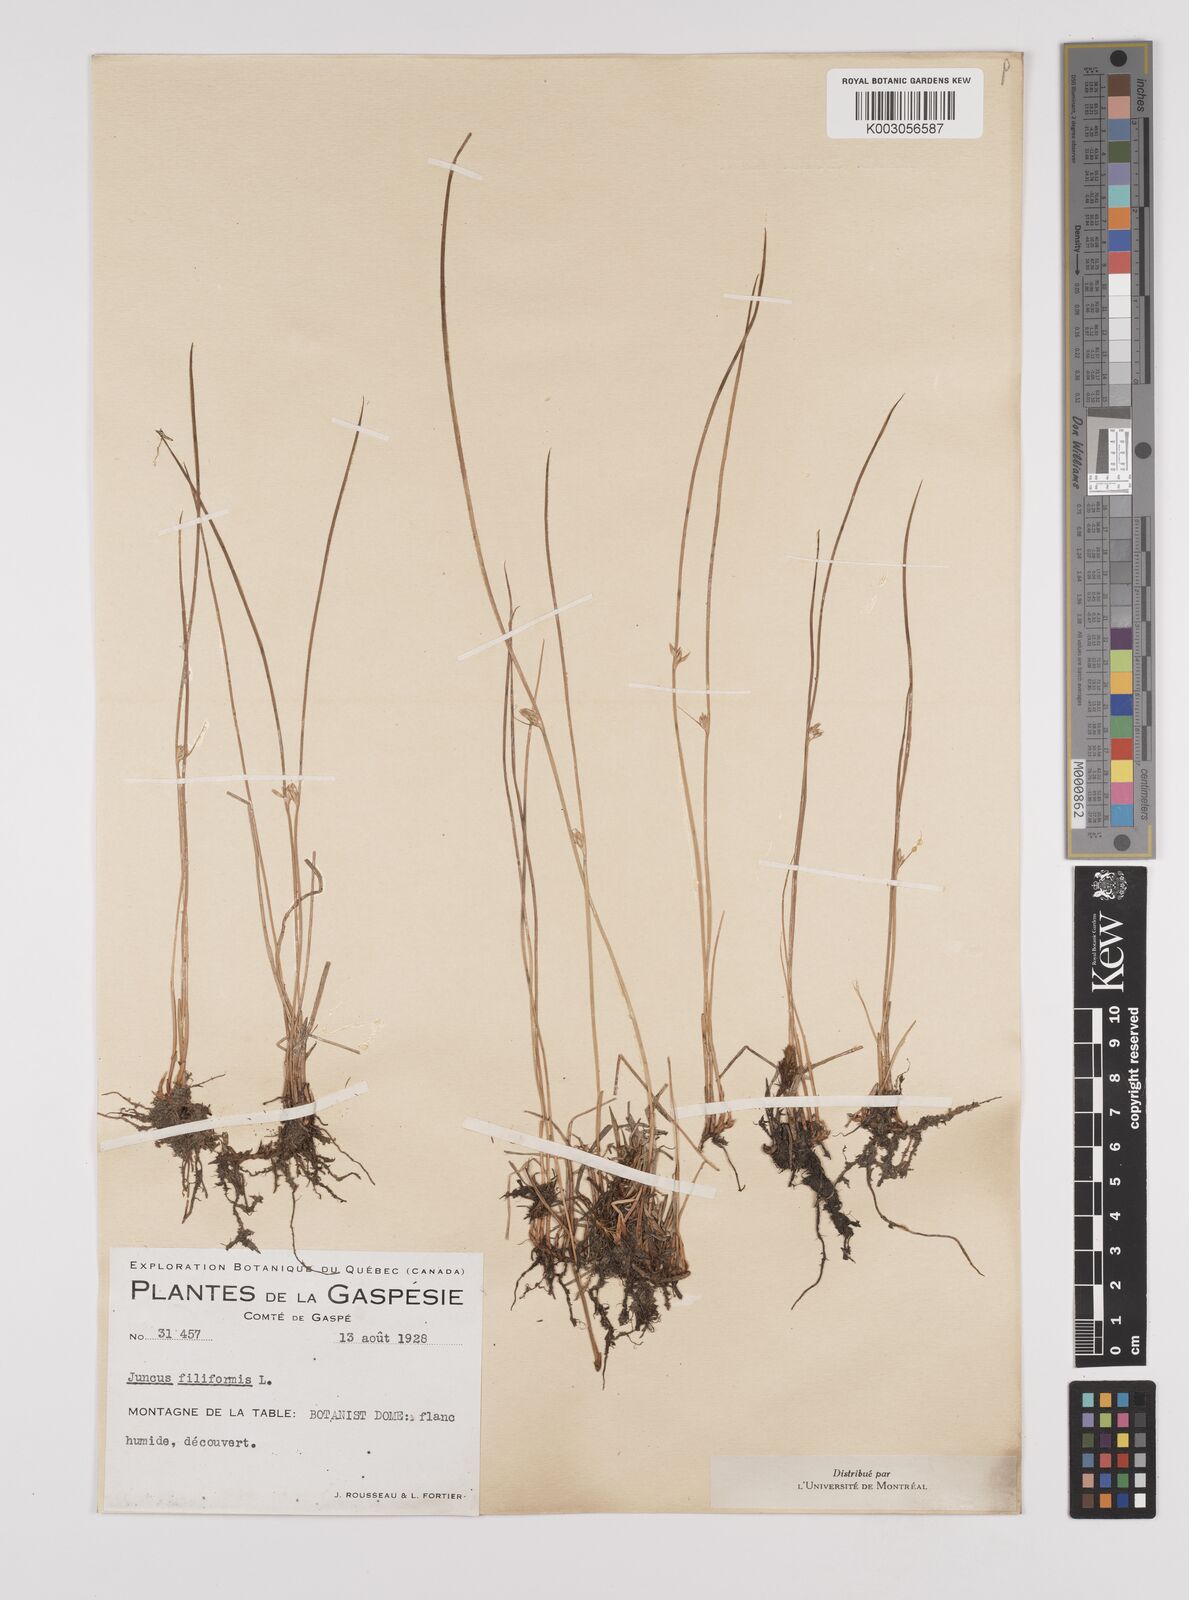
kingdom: Plantae
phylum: Tracheophyta
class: Liliopsida
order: Poales
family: Juncaceae
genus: Juncus
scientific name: Juncus filiformis
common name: Thread rush
